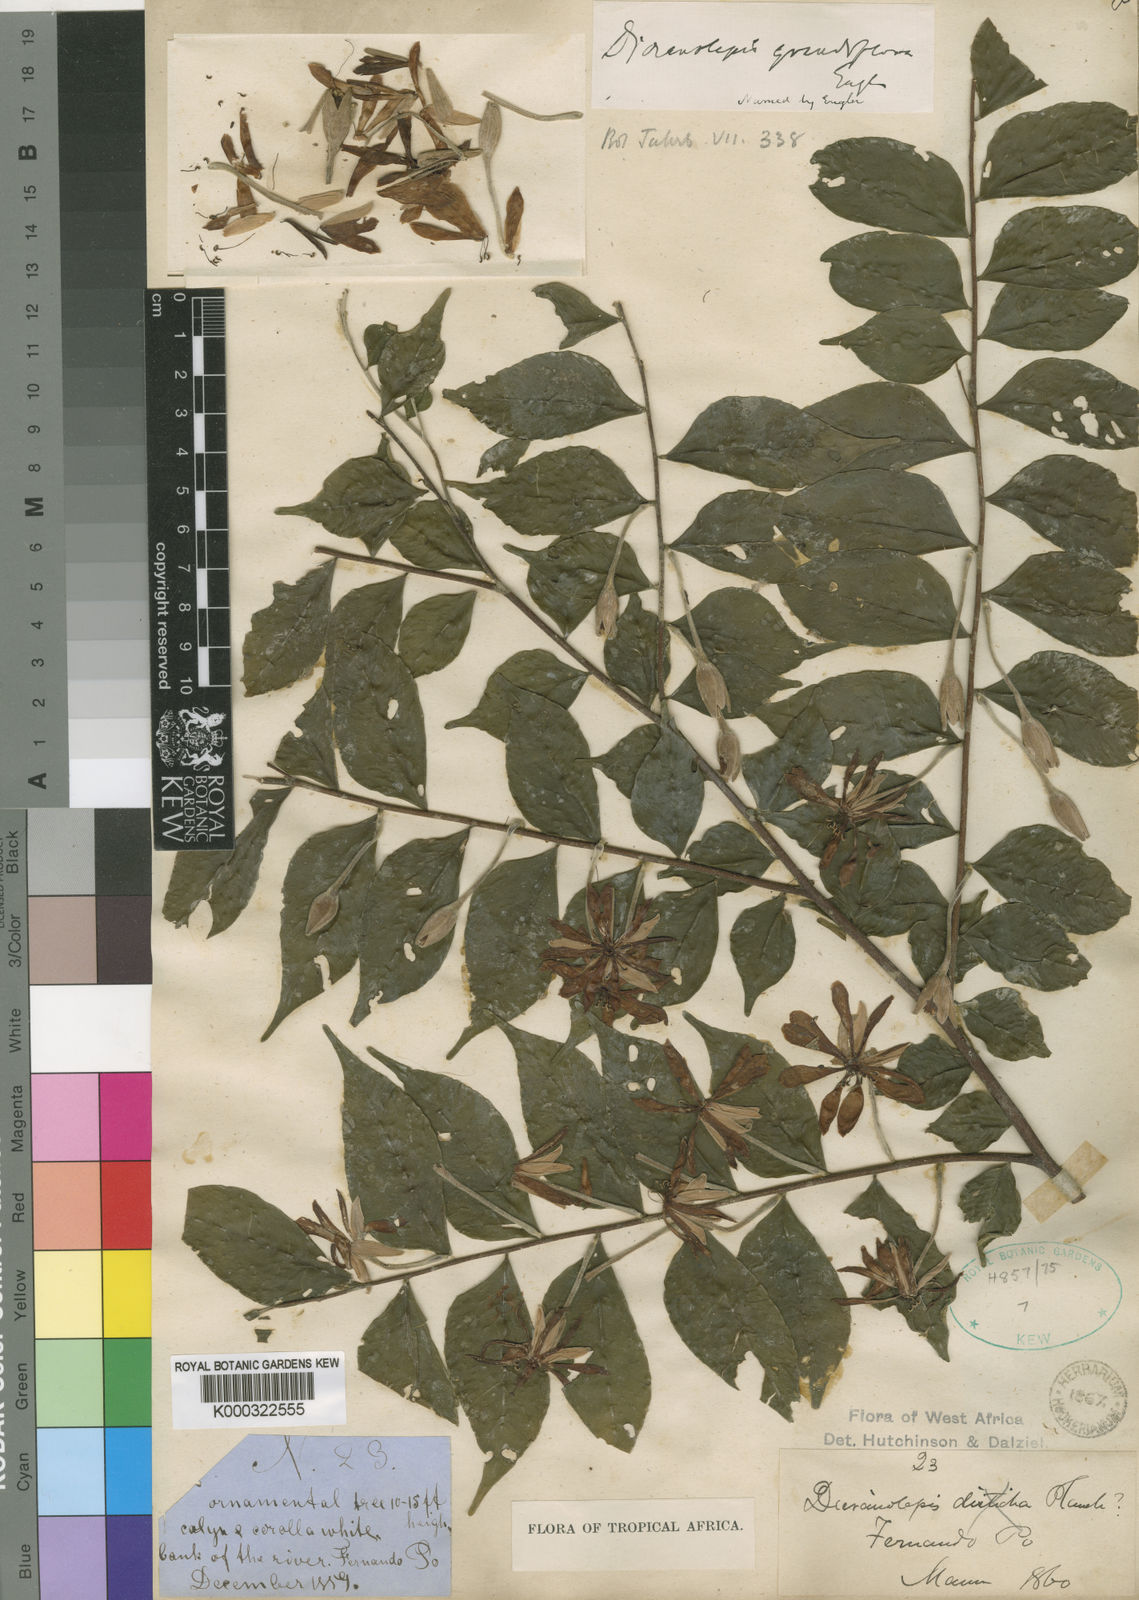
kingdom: Plantae
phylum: Tracheophyta
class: Magnoliopsida
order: Malvales
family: Thymelaeaceae
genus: Dicranolepis
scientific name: Dicranolepis grandiflora
